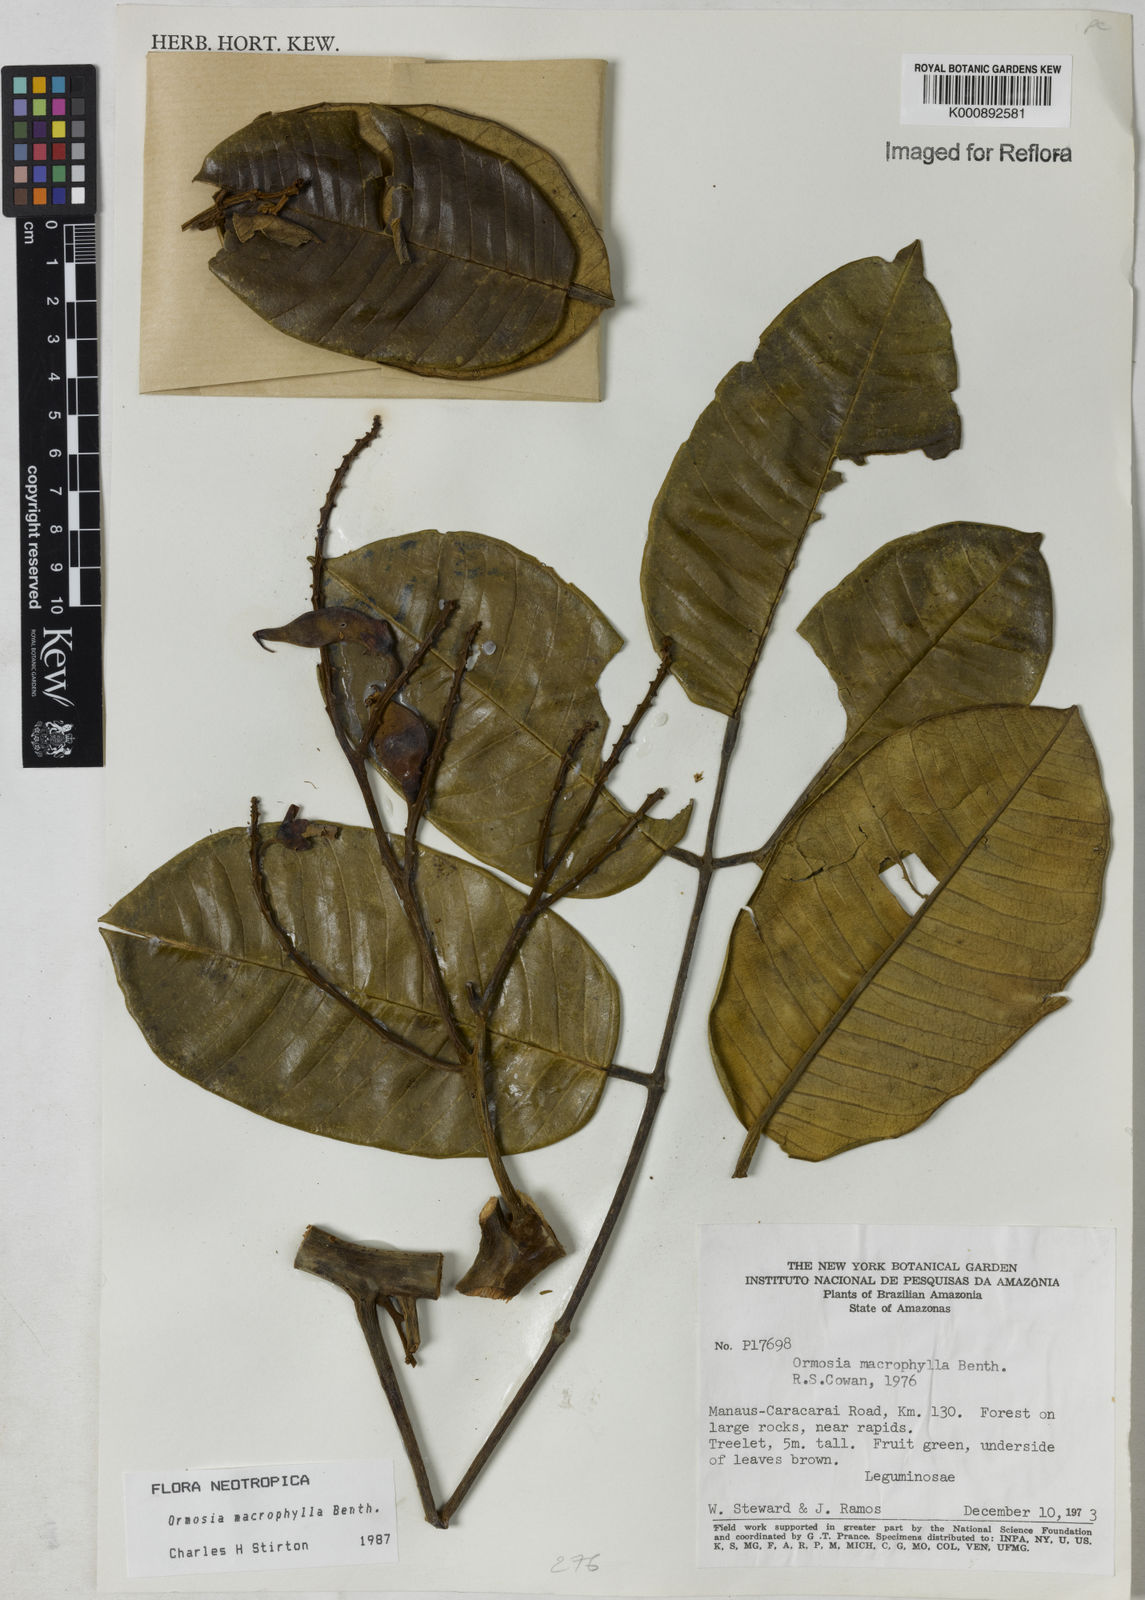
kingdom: Plantae
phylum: Tracheophyta
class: Magnoliopsida
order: Fabales
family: Fabaceae
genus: Ormosia
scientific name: Ormosia macrophylla
